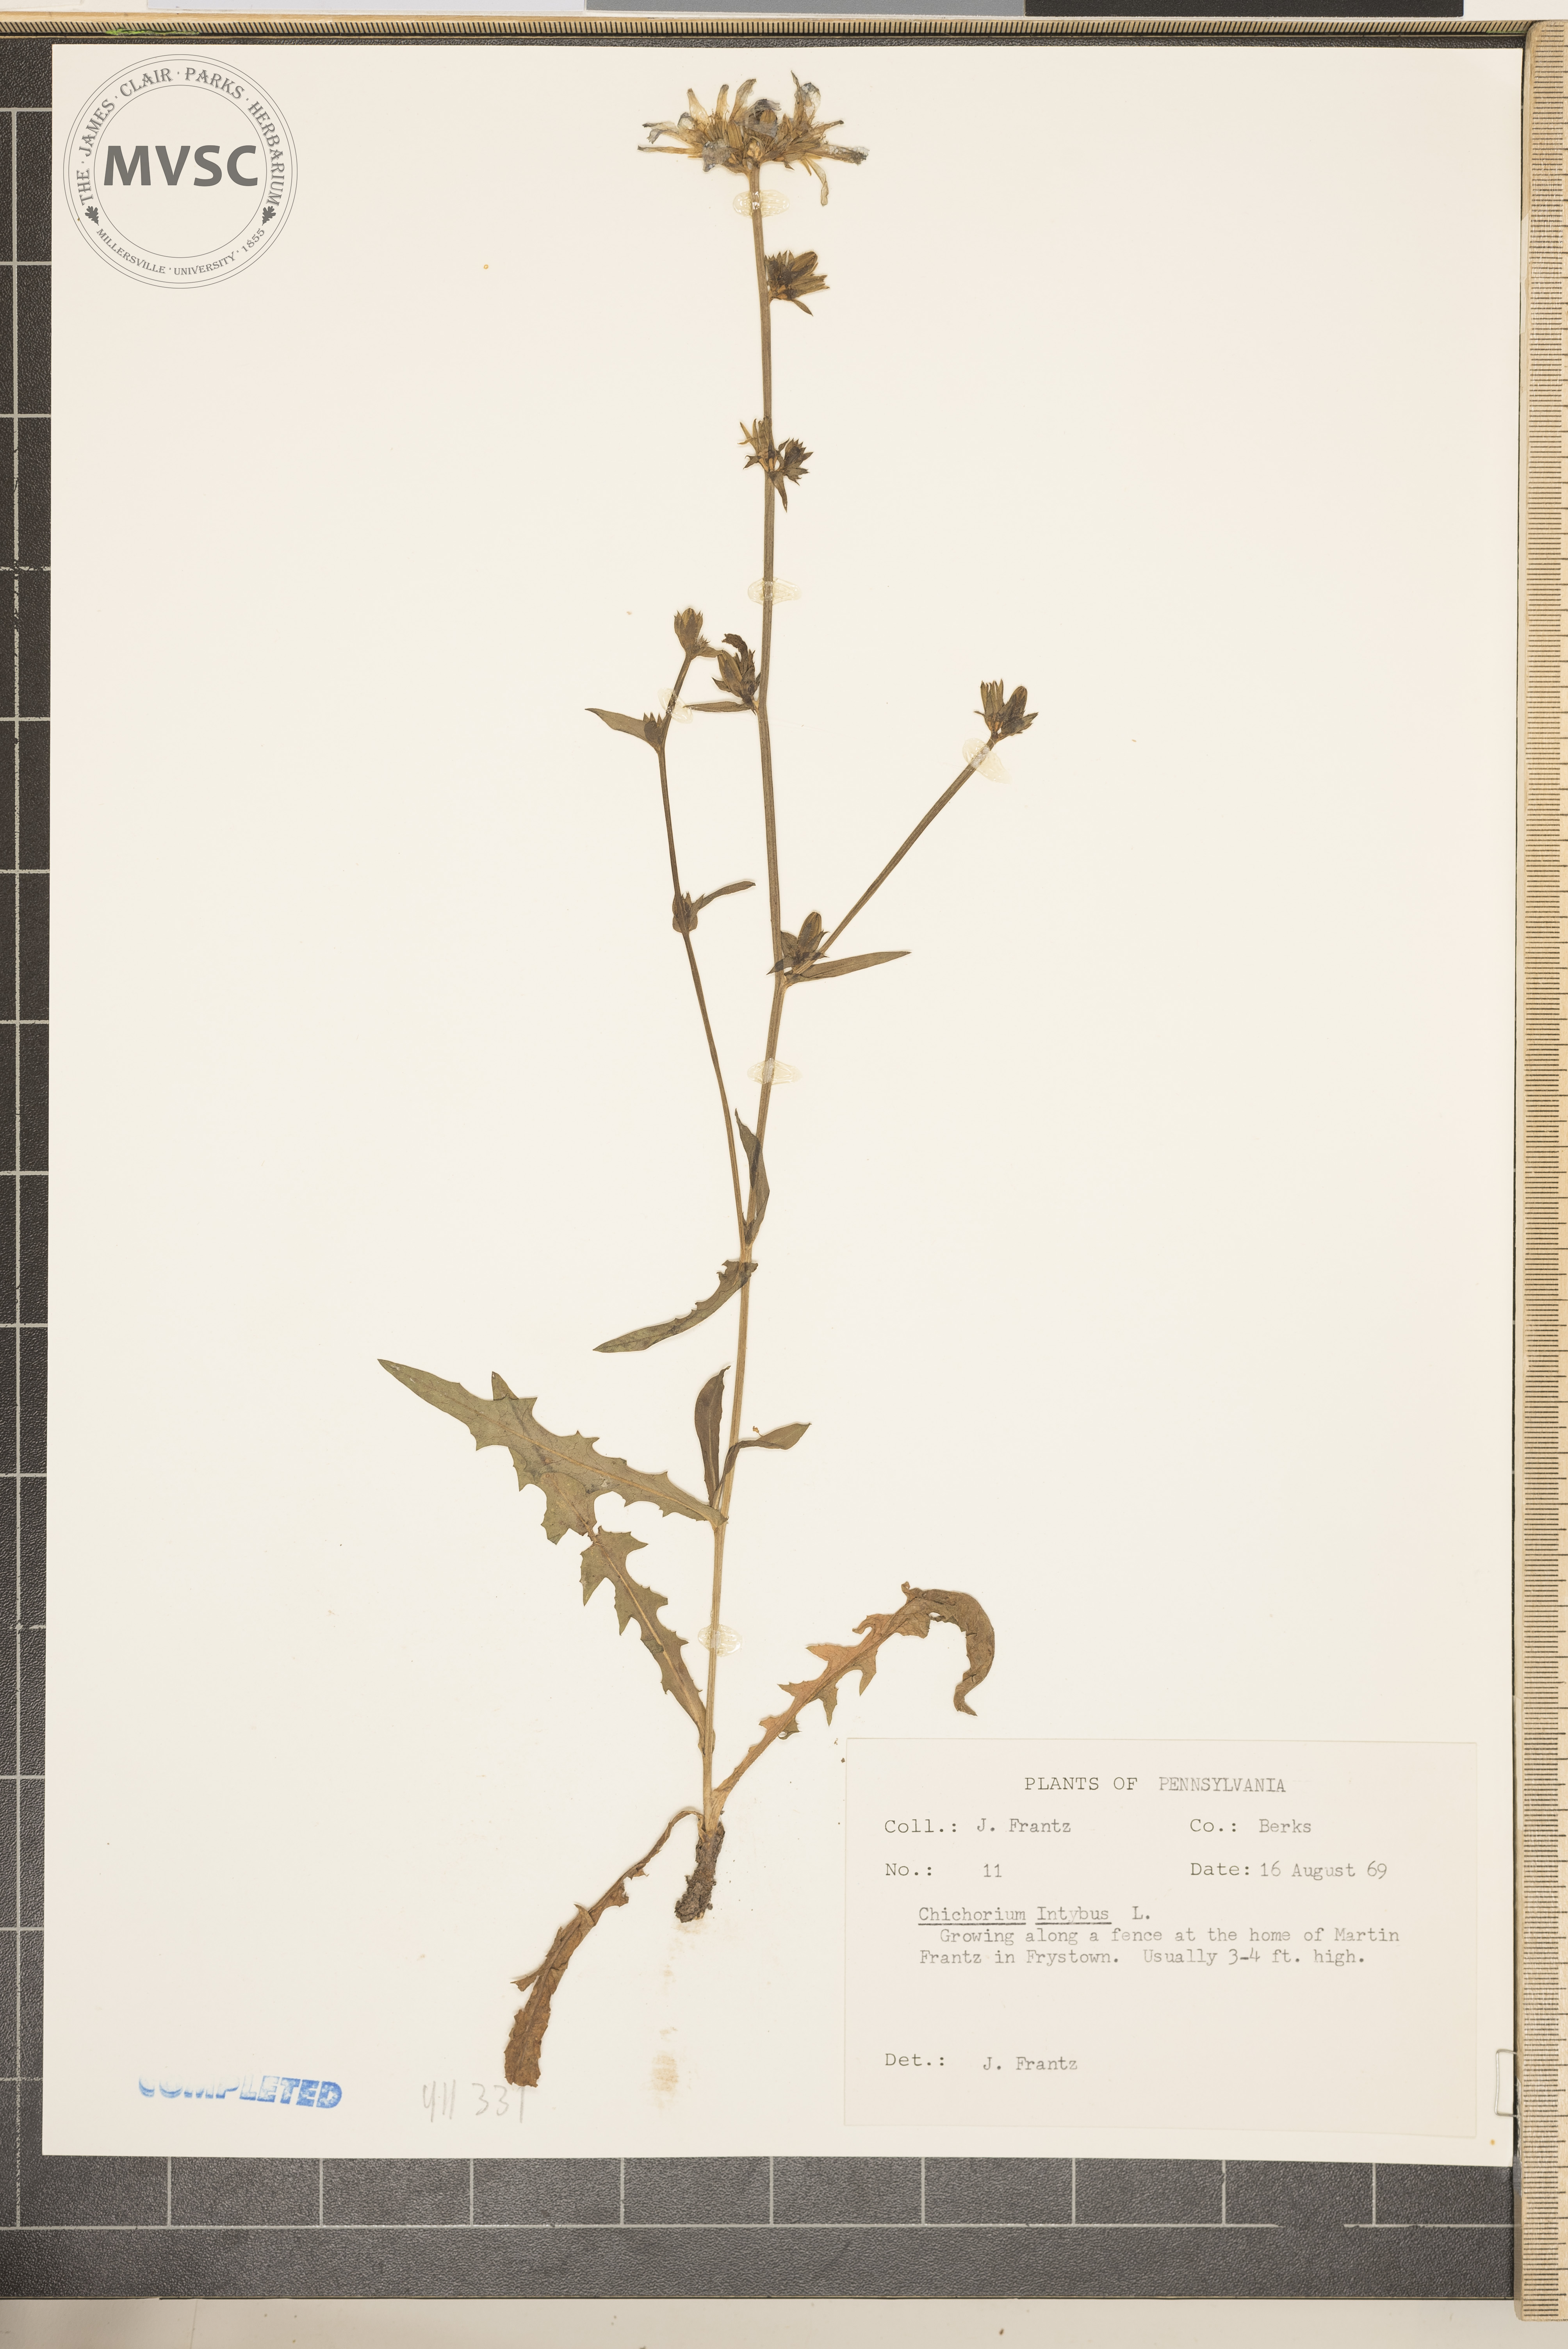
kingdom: Plantae
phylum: Tracheophyta
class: Magnoliopsida
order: Asterales
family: Asteraceae
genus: Cichorium
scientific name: Cichorium intybus
